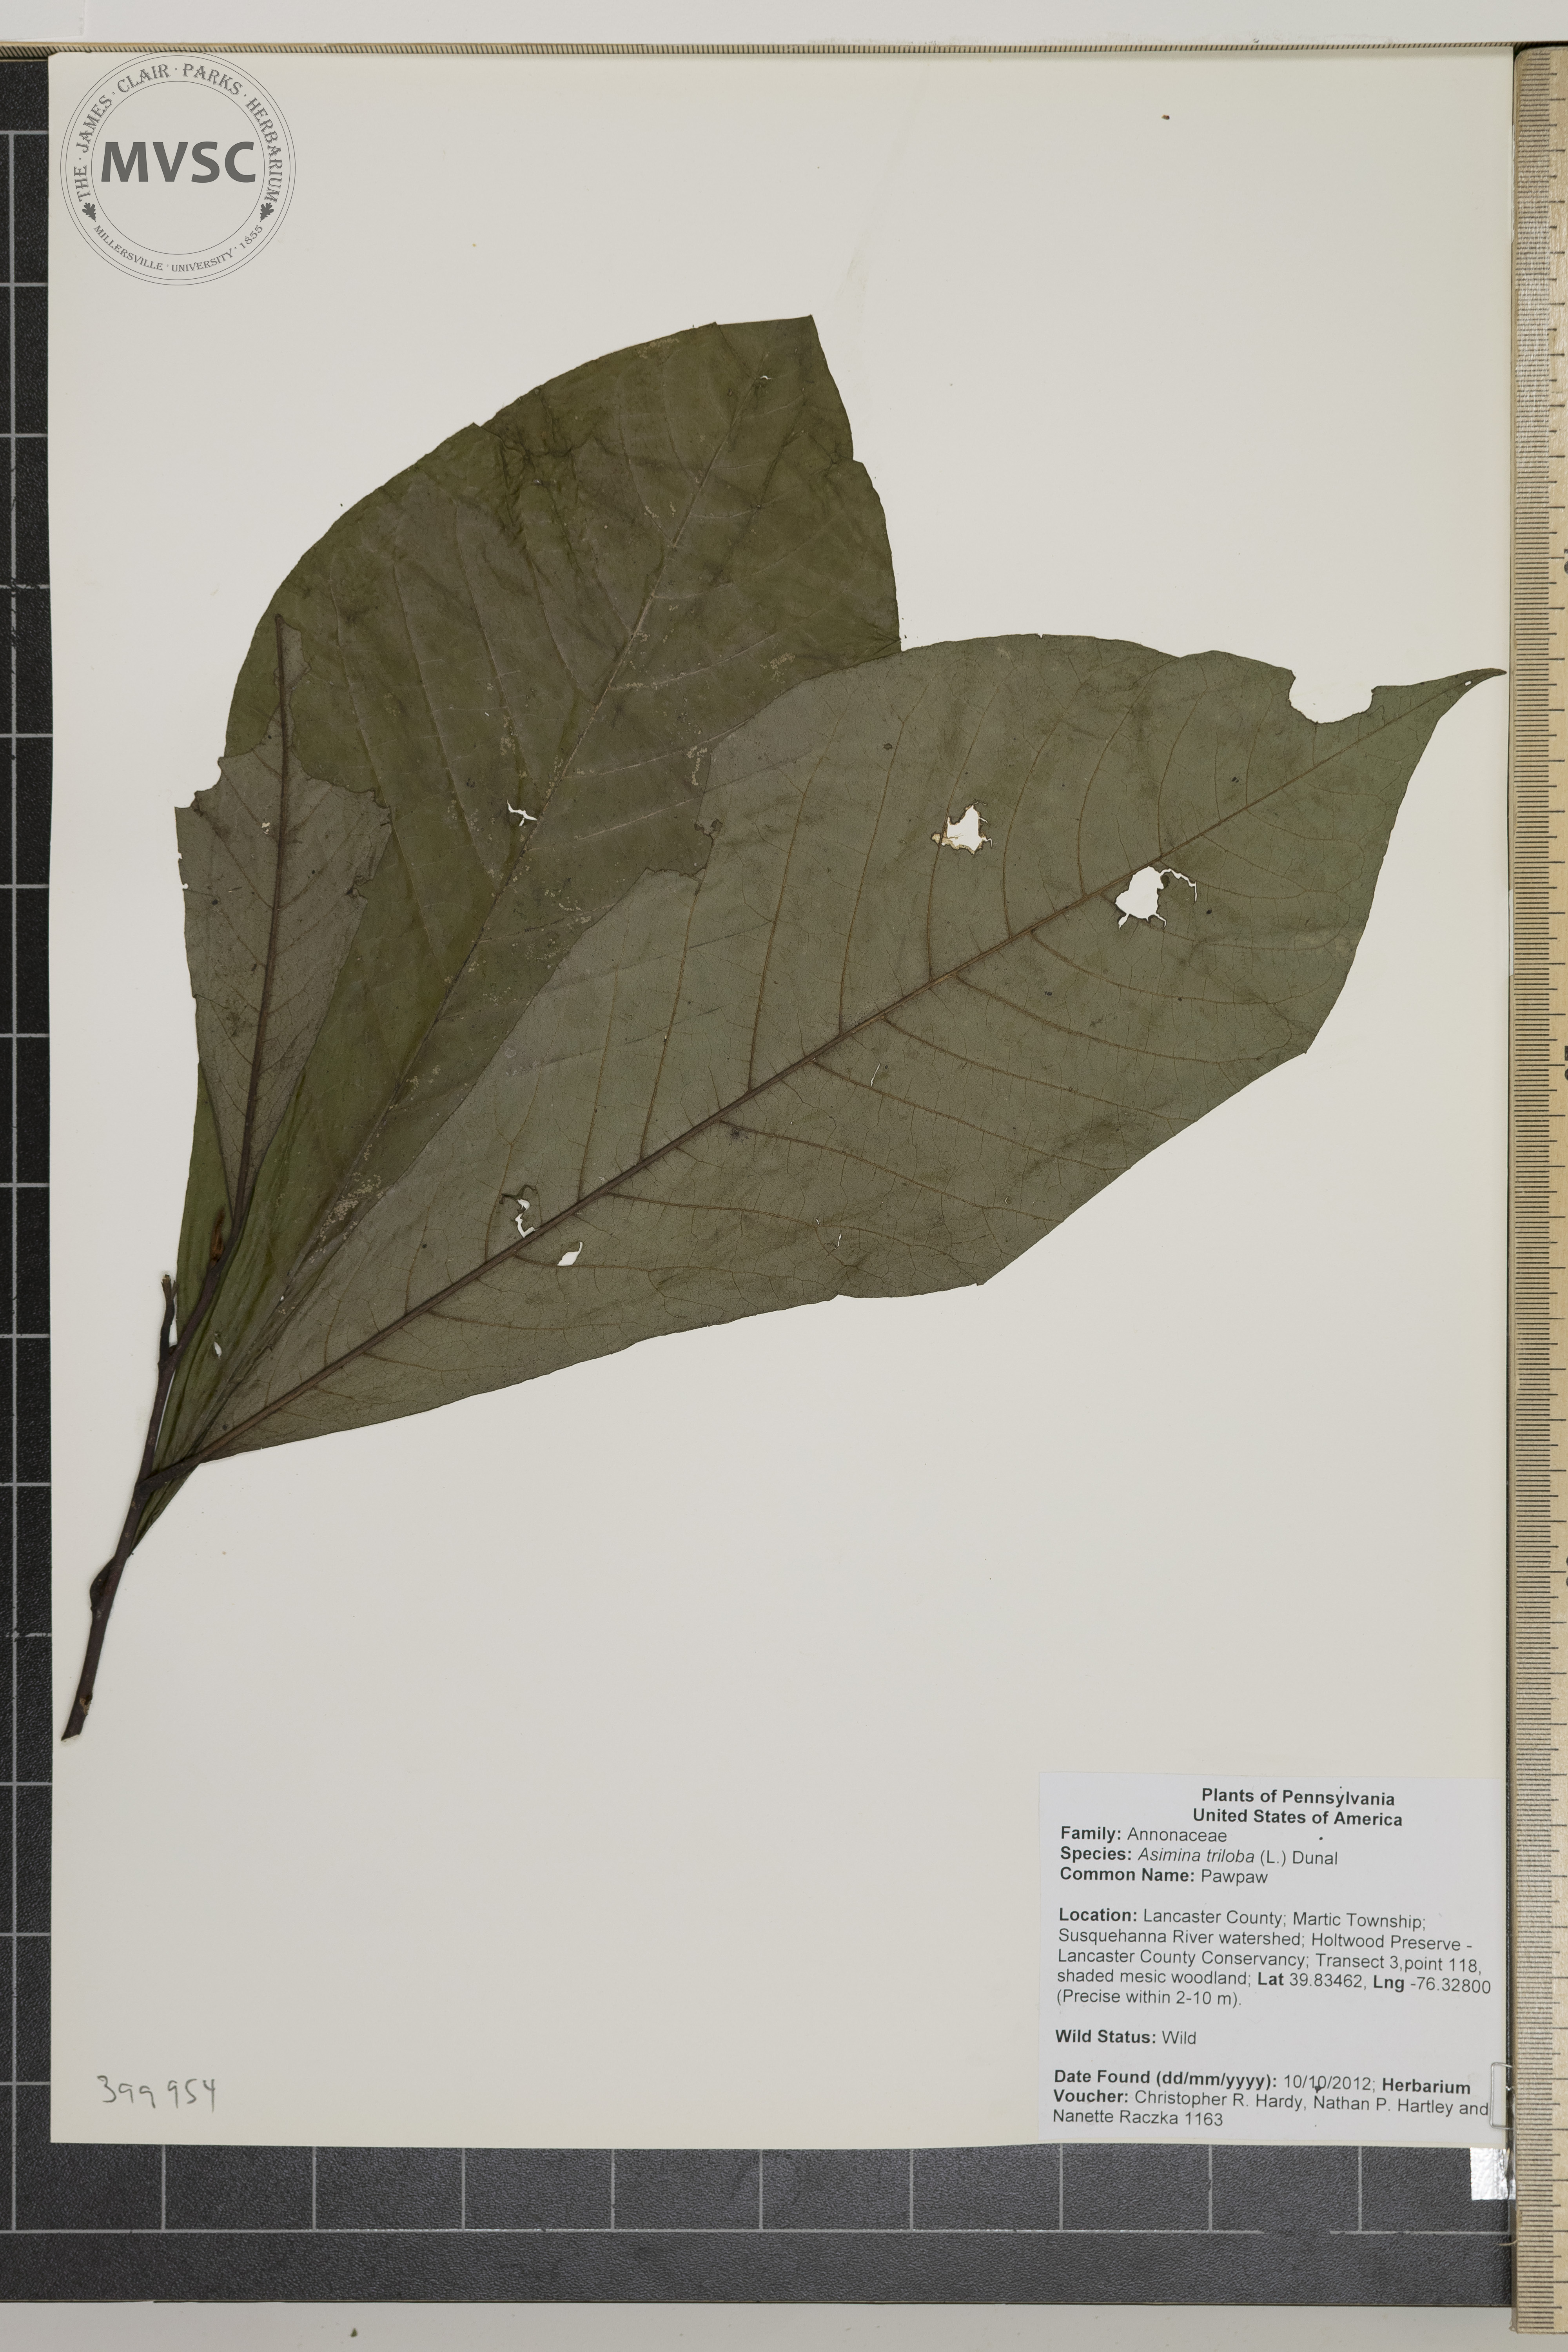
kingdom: Plantae
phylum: Tracheophyta
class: Magnoliopsida
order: Magnoliales
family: Annonaceae
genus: Asimina
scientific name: Asimina triloba
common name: Pawpaw
